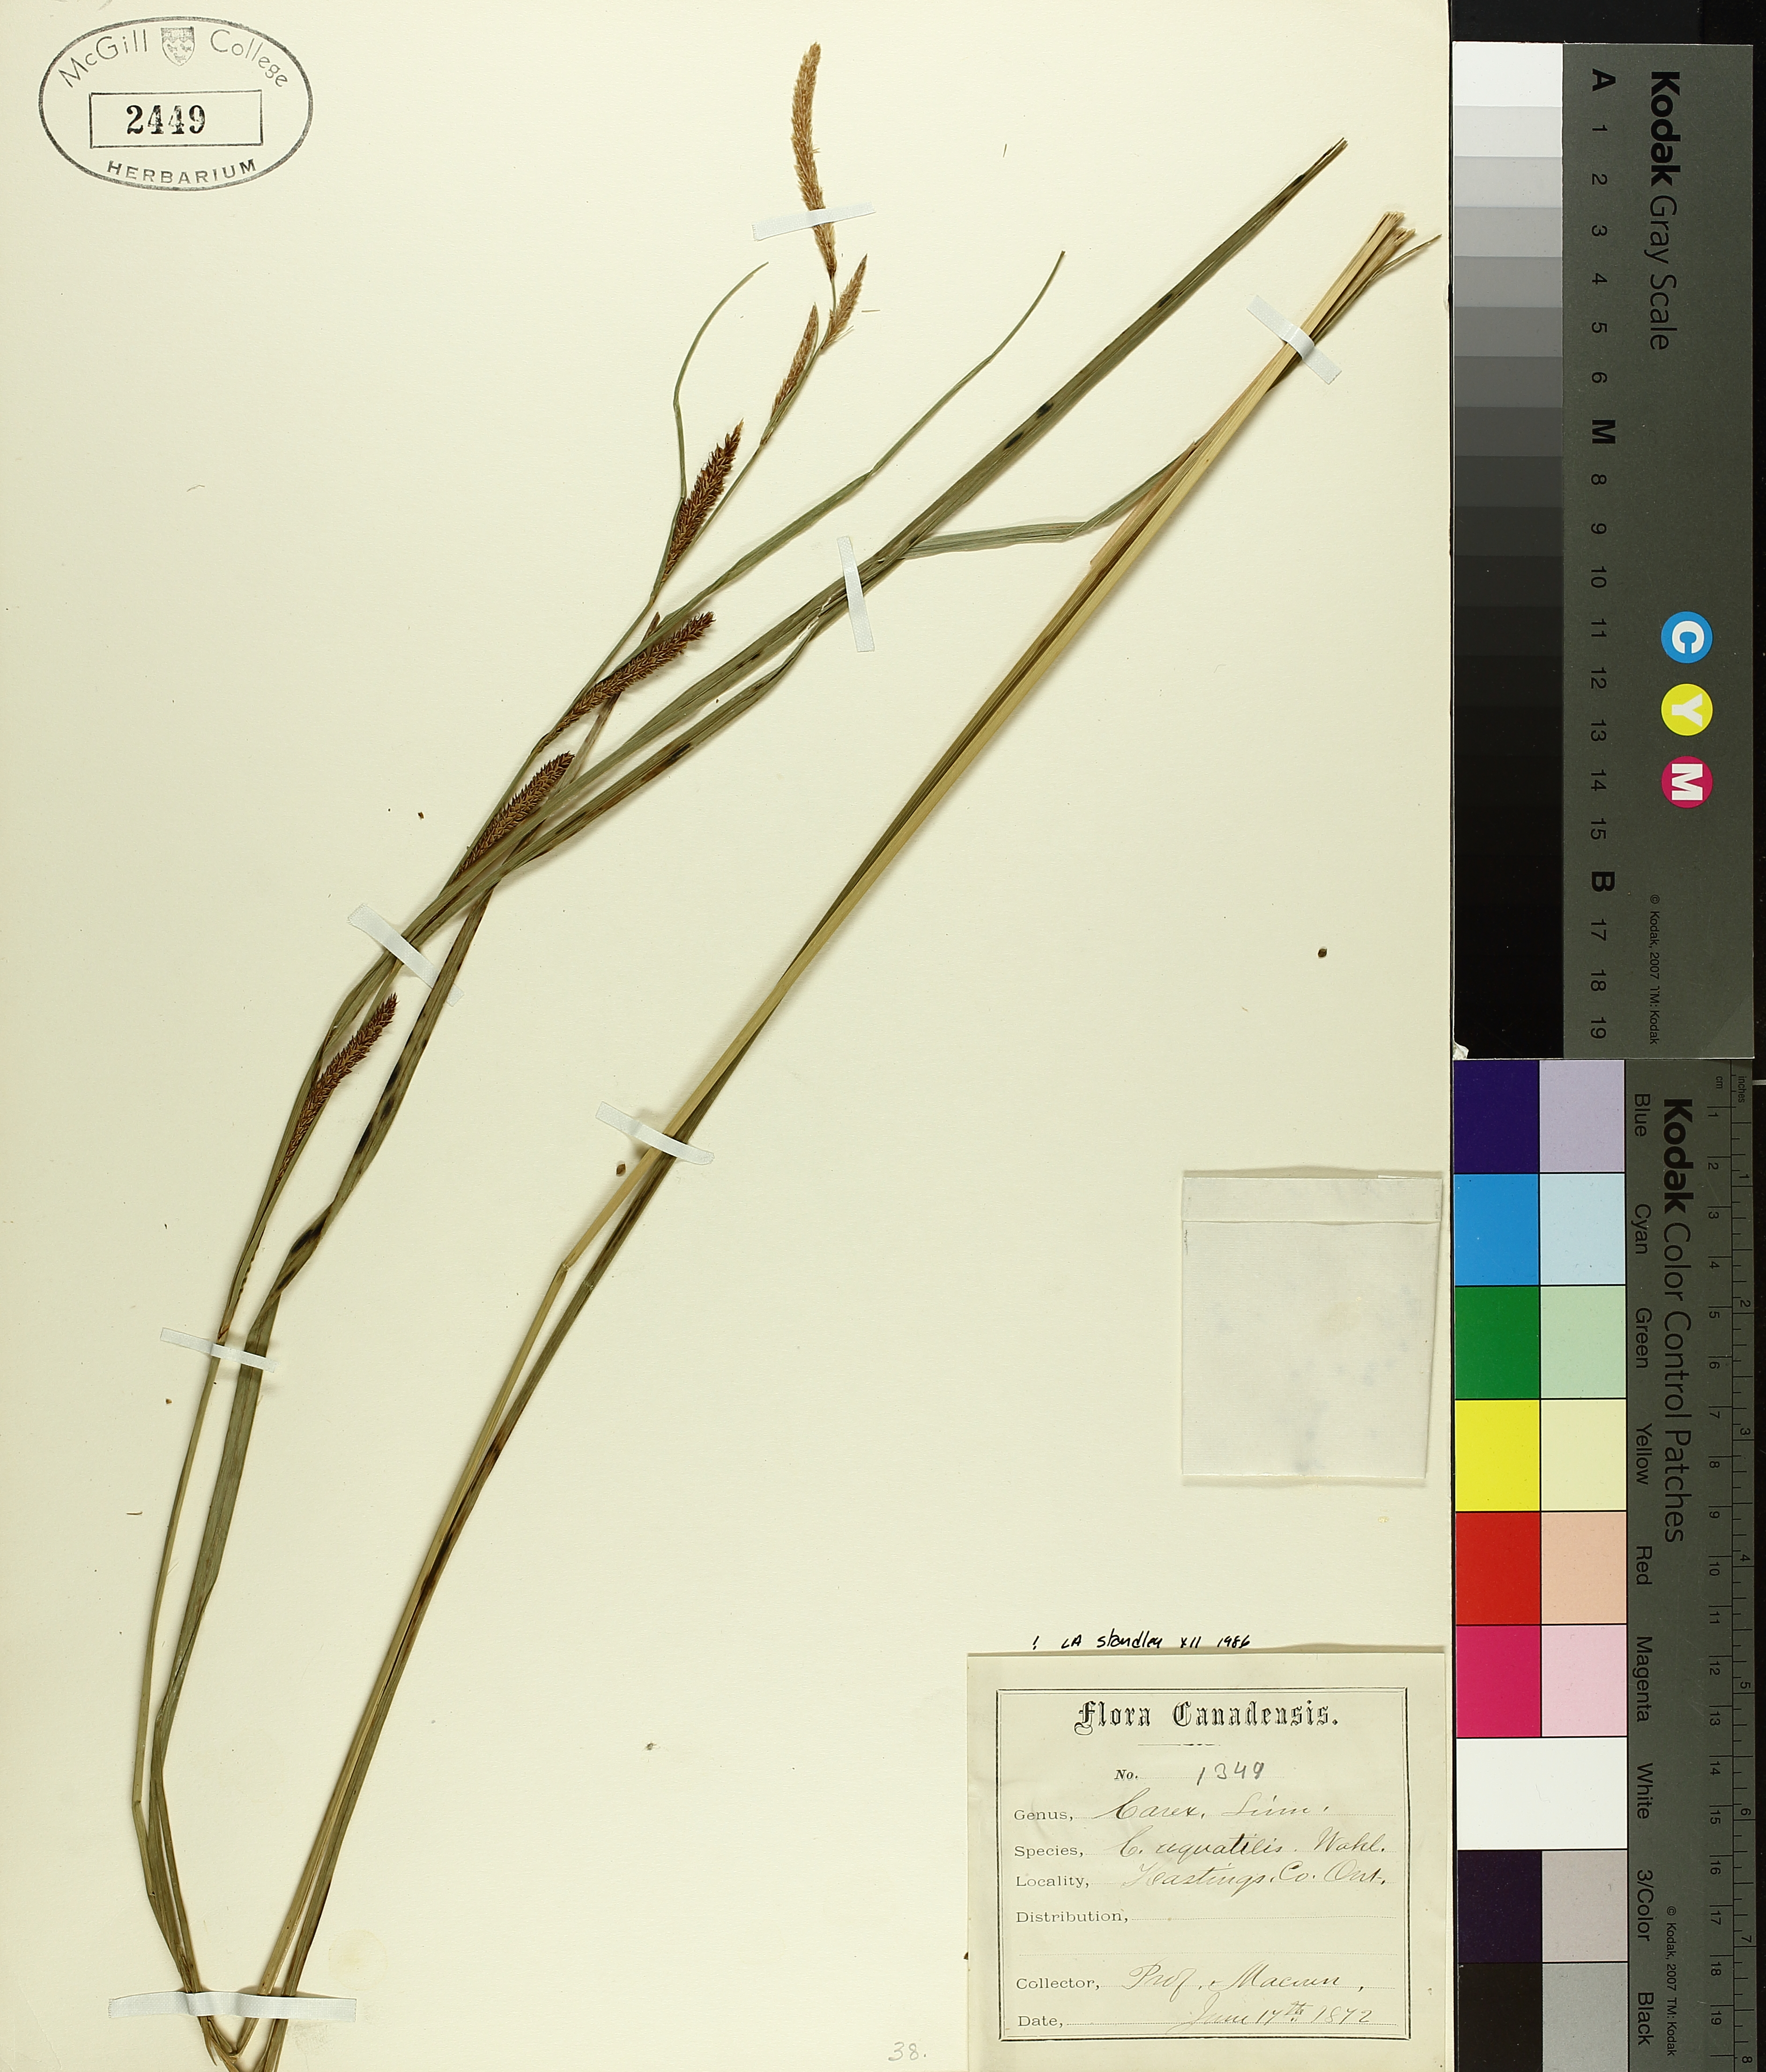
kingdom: Plantae
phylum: Tracheophyta
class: Liliopsida
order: Poales
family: Cyperaceae
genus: Carex
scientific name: Carex aquatilis
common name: Water sedge
